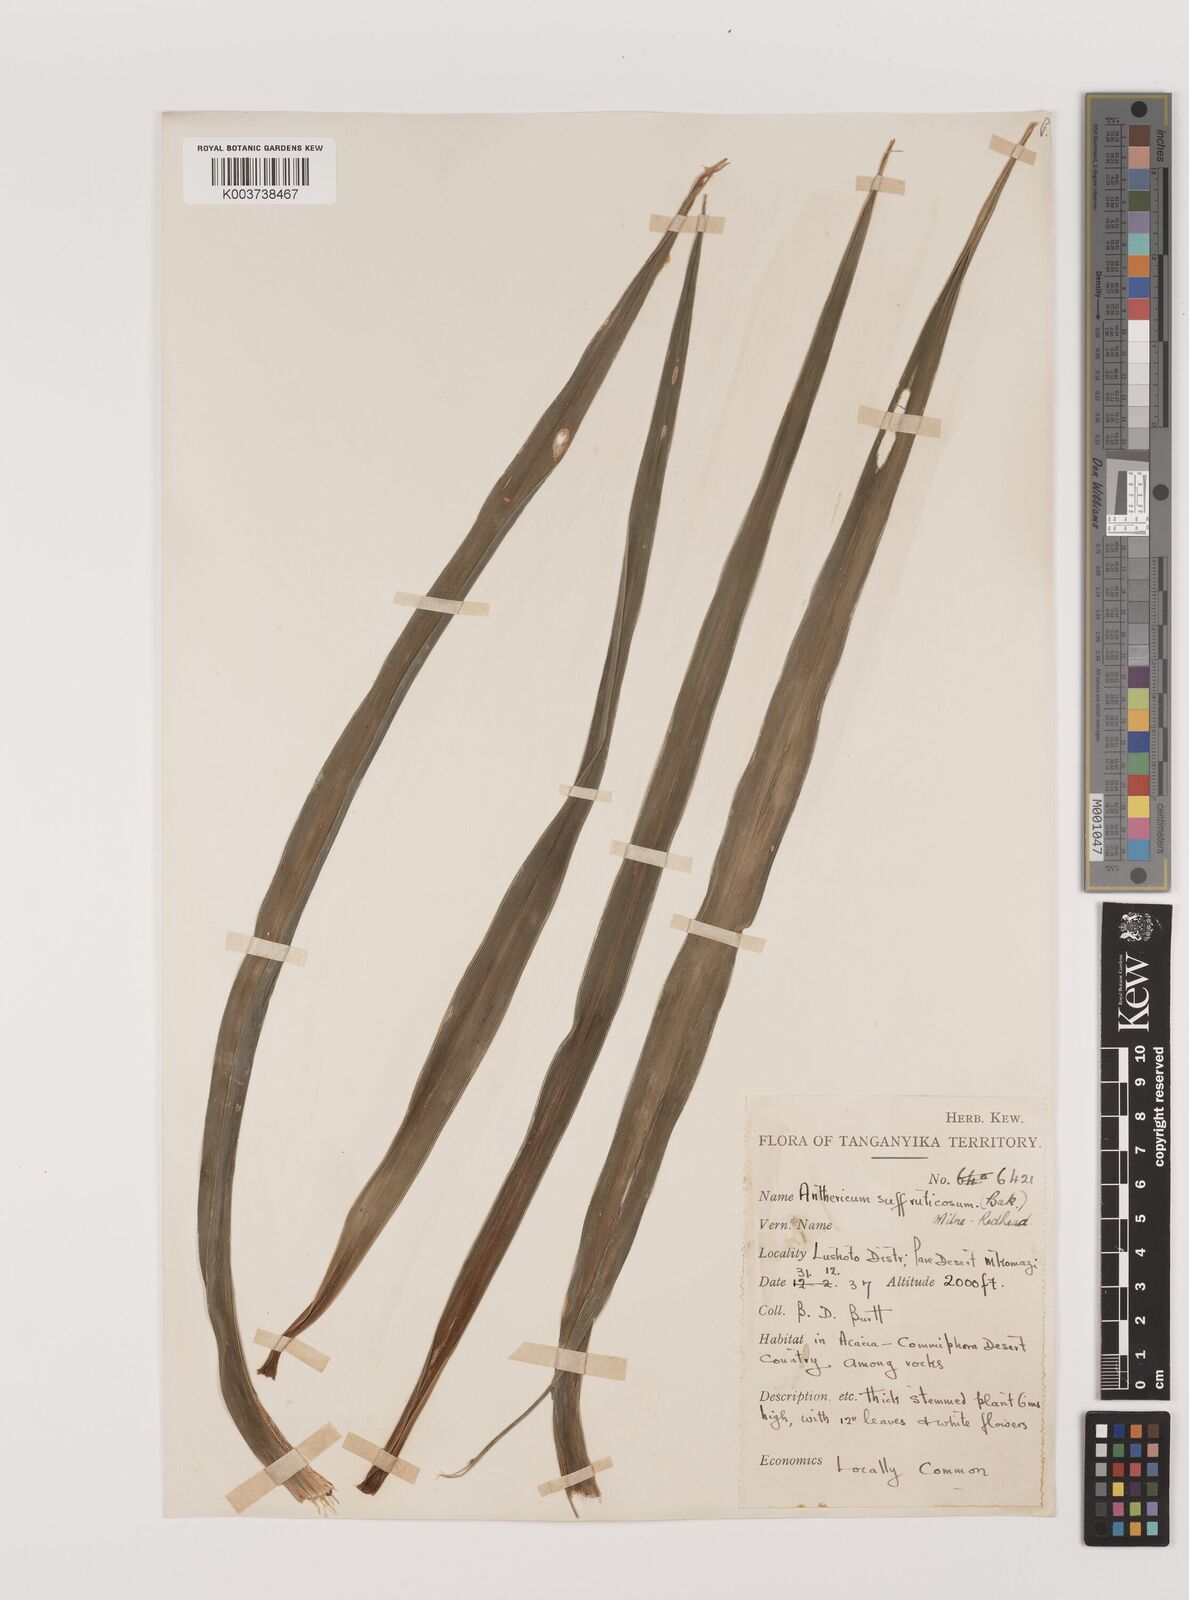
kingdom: Plantae
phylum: Tracheophyta
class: Liliopsida
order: Asparagales
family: Asparagaceae
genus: Chlorophytum
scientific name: Chlorophytum suffruticosum
